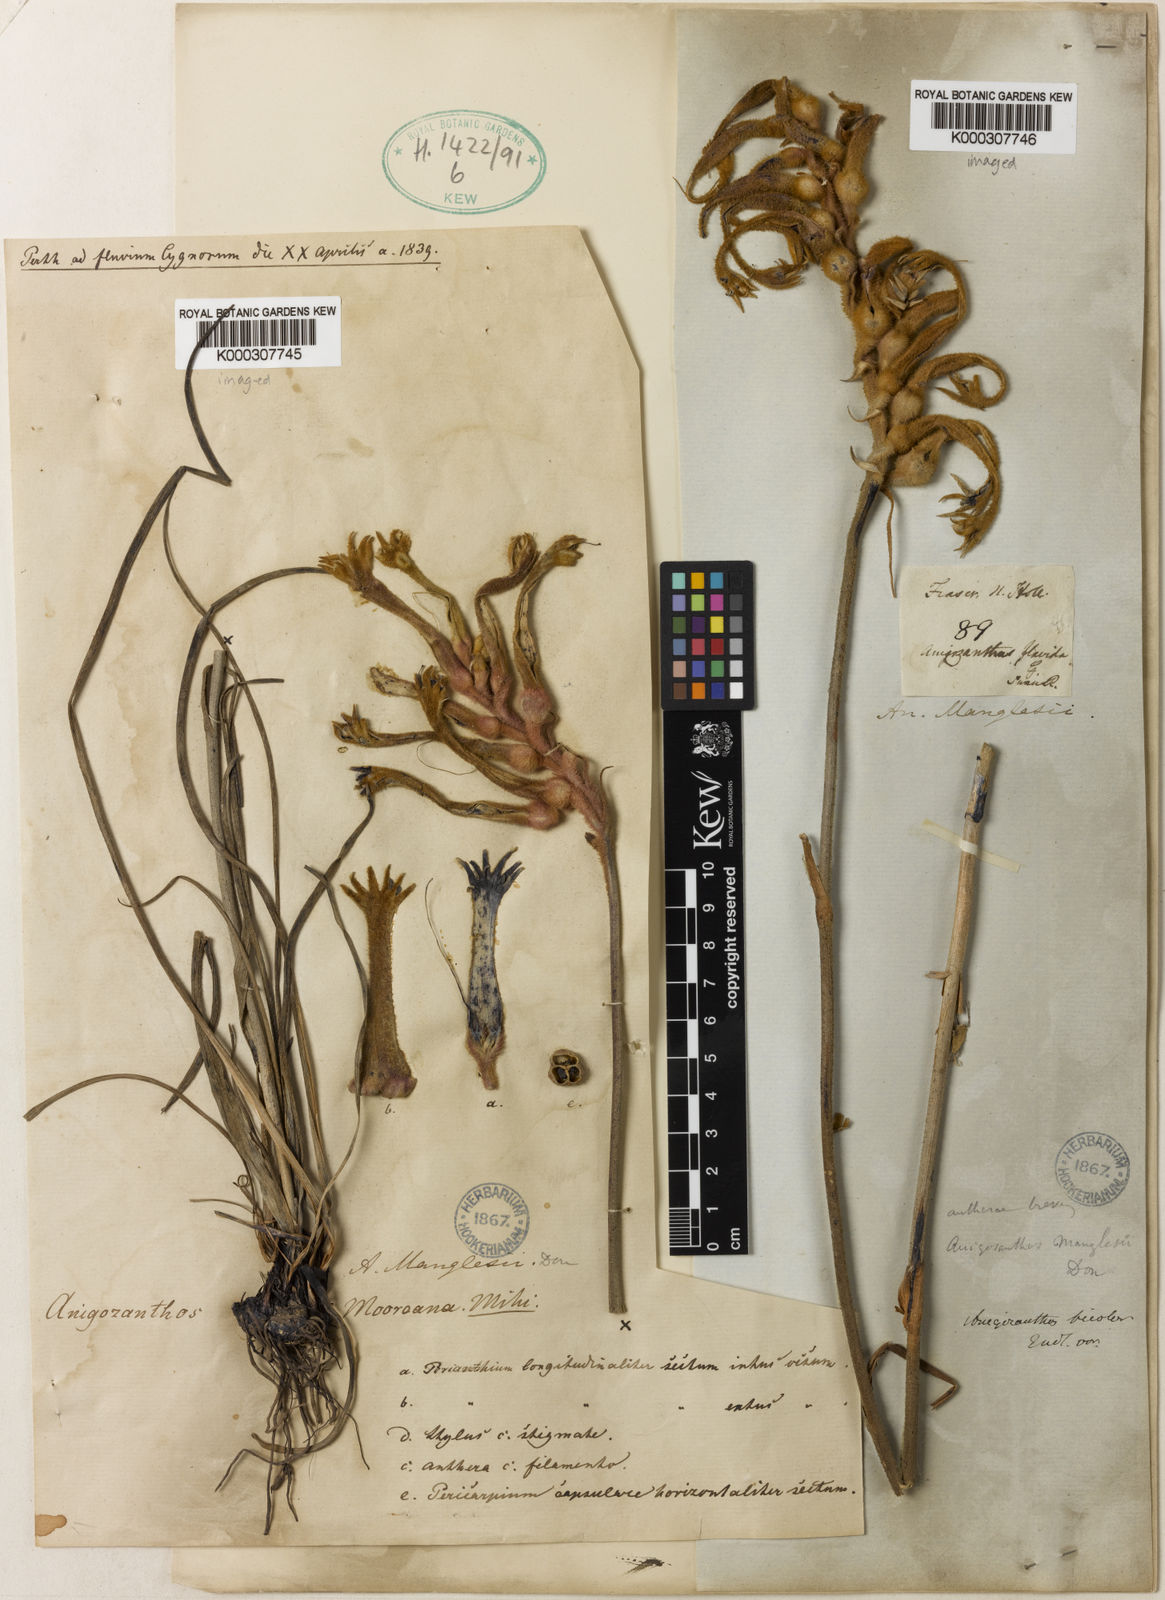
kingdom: Plantae
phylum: Tracheophyta
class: Liliopsida
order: Commelinales
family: Haemodoraceae
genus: Anigozanthos
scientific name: Anigozanthos bicolor
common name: Little kangaroo-paw
